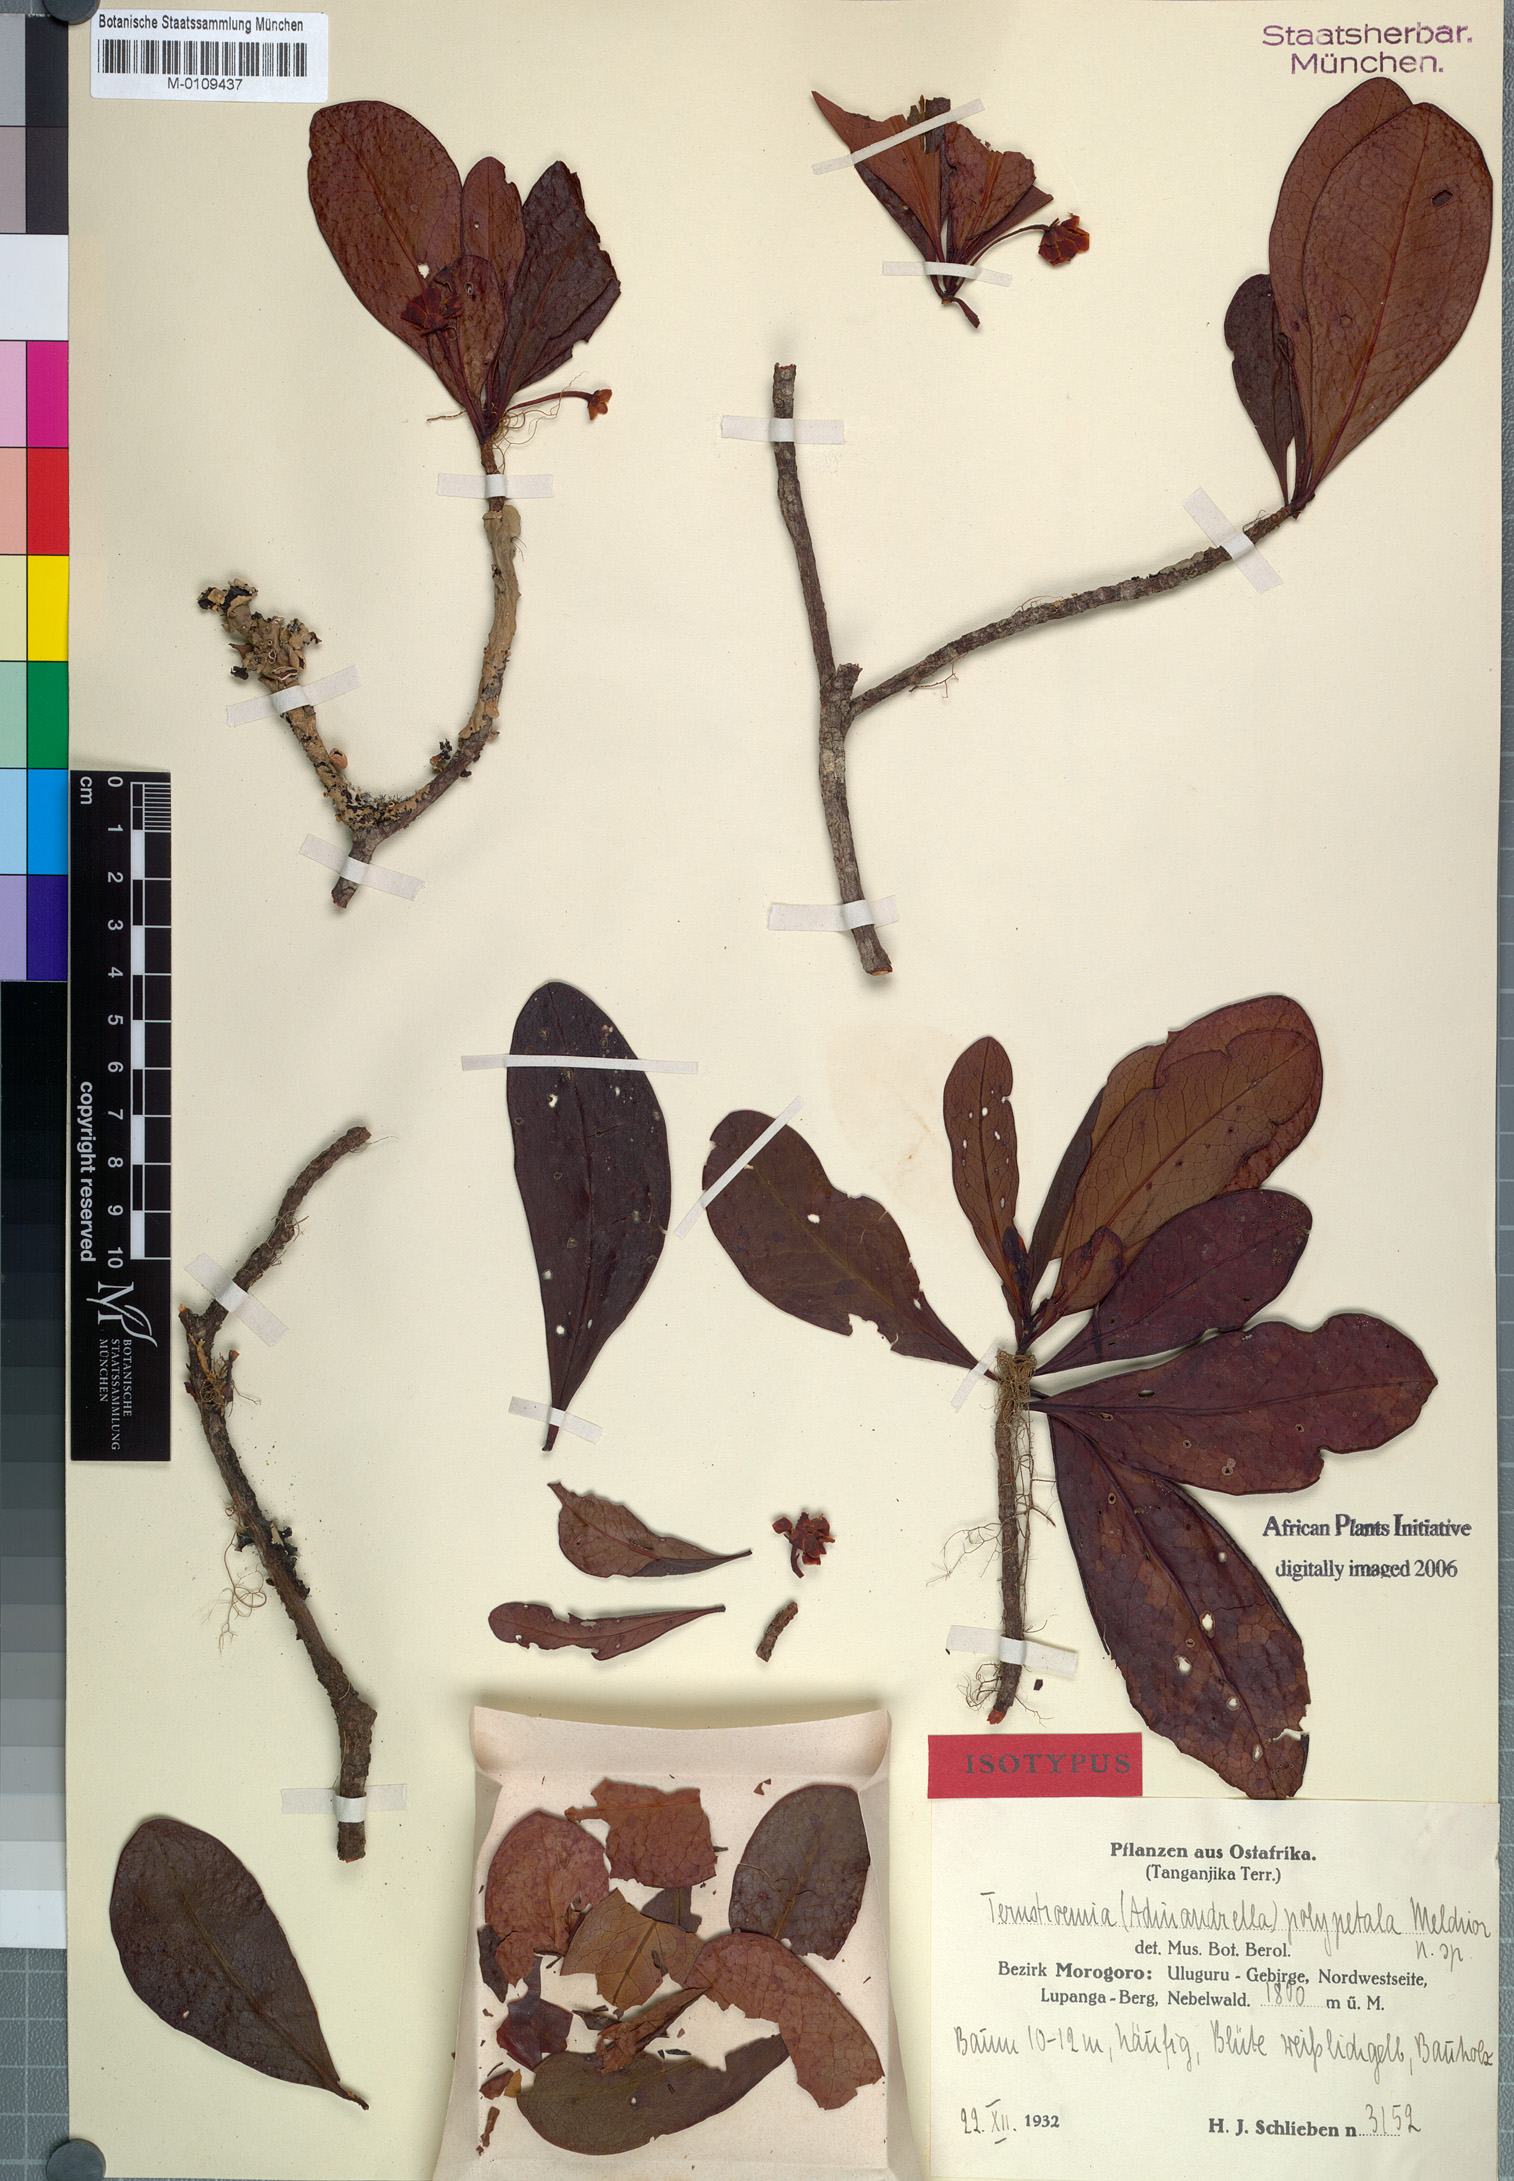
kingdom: Plantae
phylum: Tracheophyta
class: Magnoliopsida
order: Ericales
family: Pentaphylacaceae
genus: Ternstroemia
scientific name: Ternstroemia polypetala
